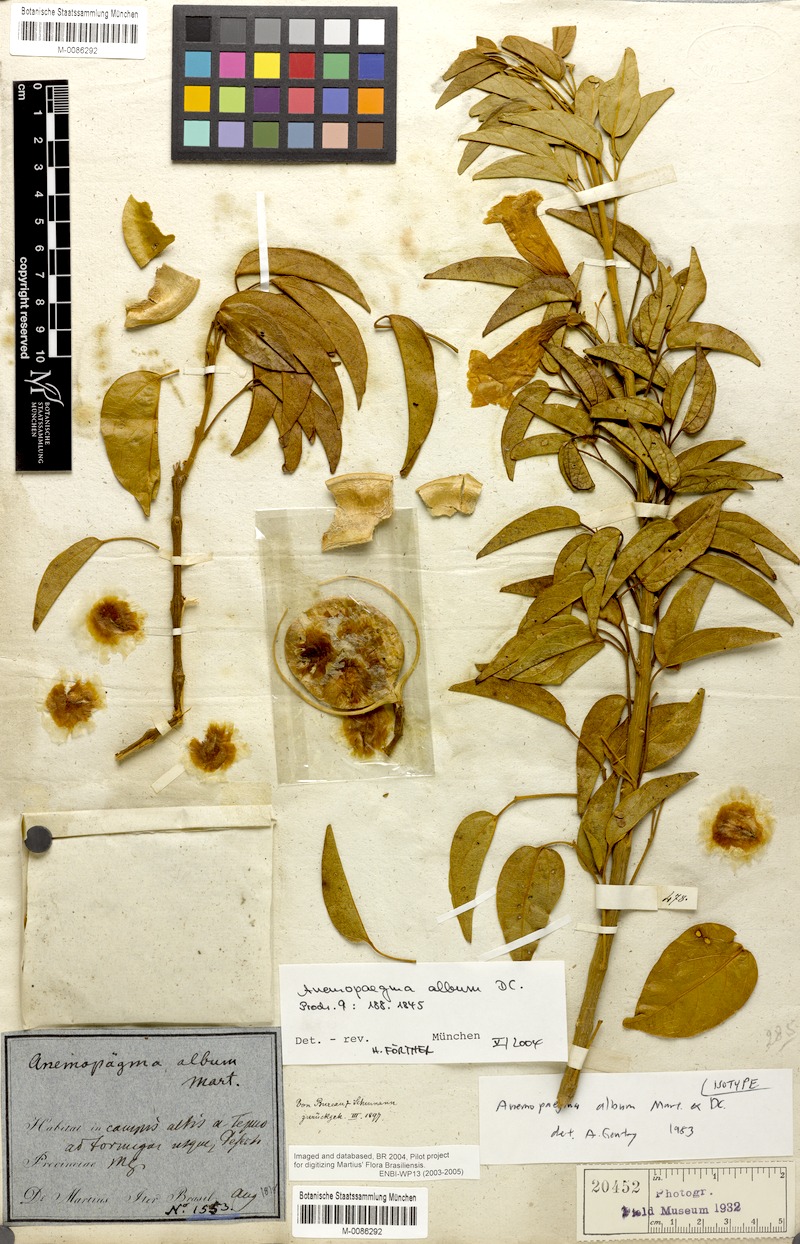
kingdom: Plantae
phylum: Tracheophyta
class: Magnoliopsida
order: Lamiales
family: Bignoniaceae
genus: Anemopaegma
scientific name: Anemopaegma album
